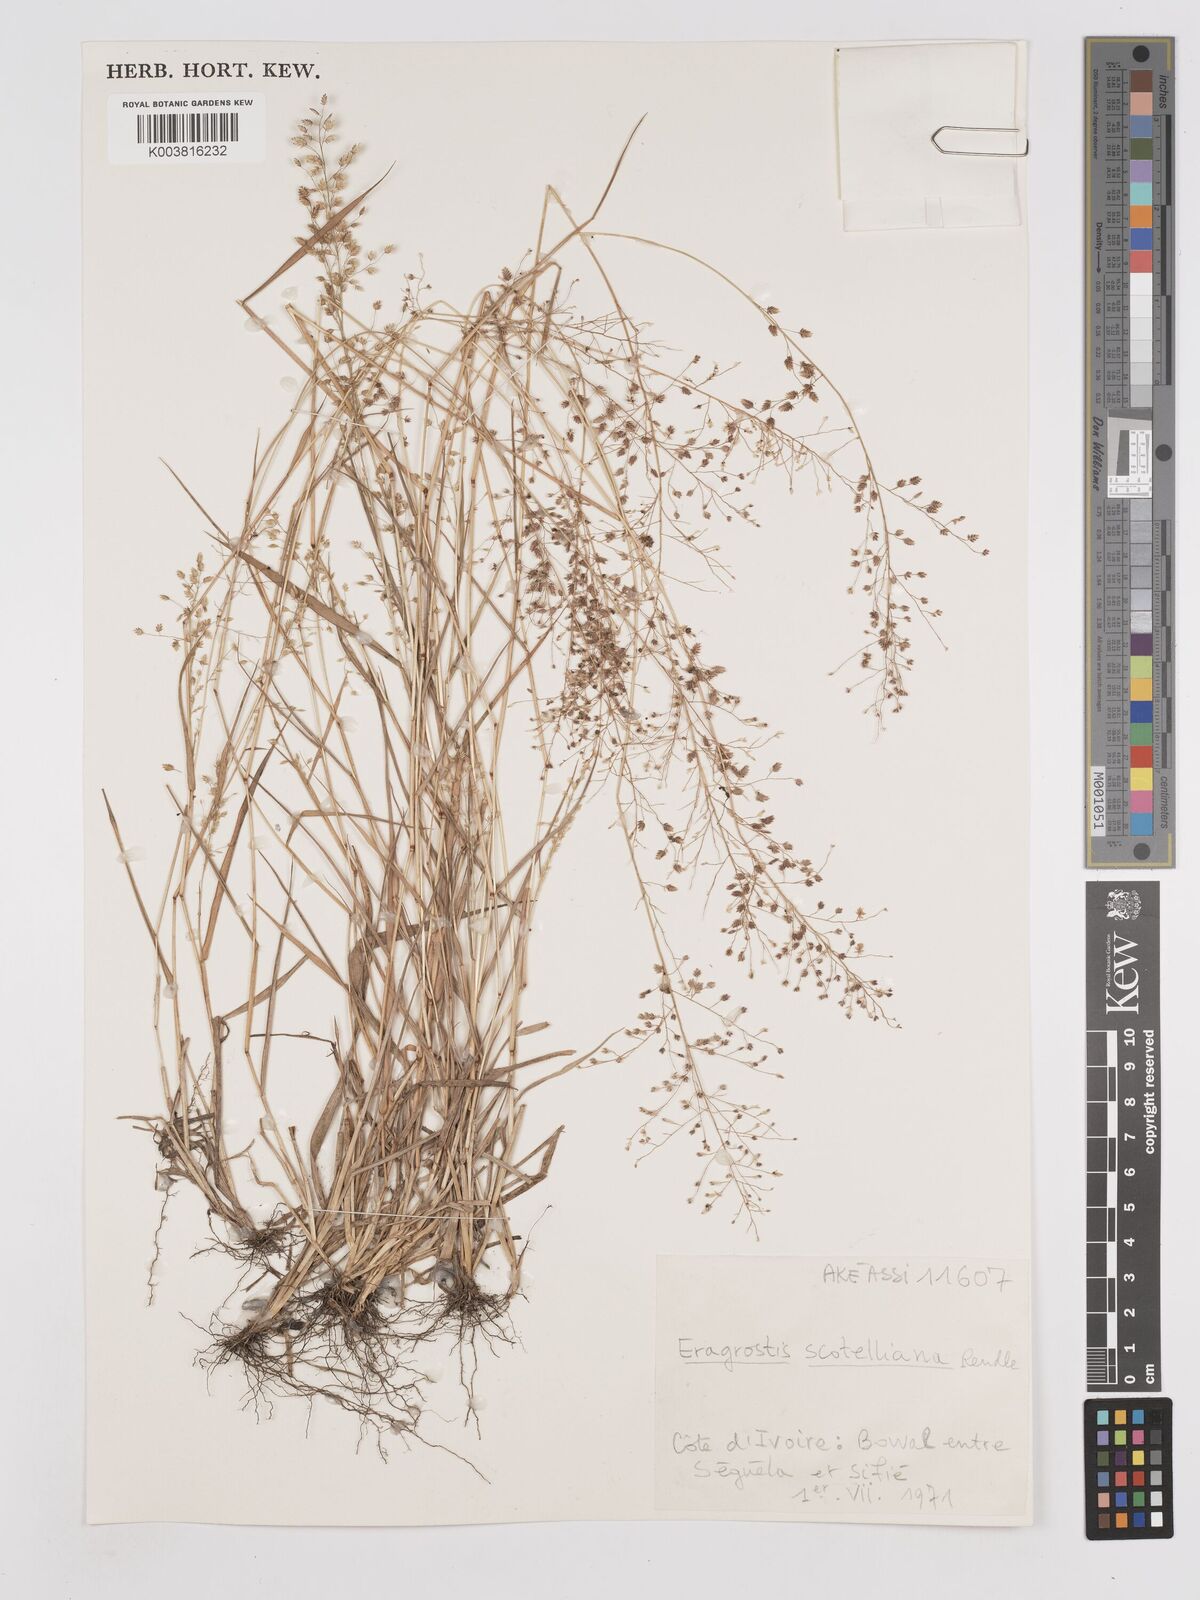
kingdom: Plantae
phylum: Tracheophyta
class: Liliopsida
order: Poales
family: Poaceae
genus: Eragrostis
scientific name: Eragrostis scotelliana
